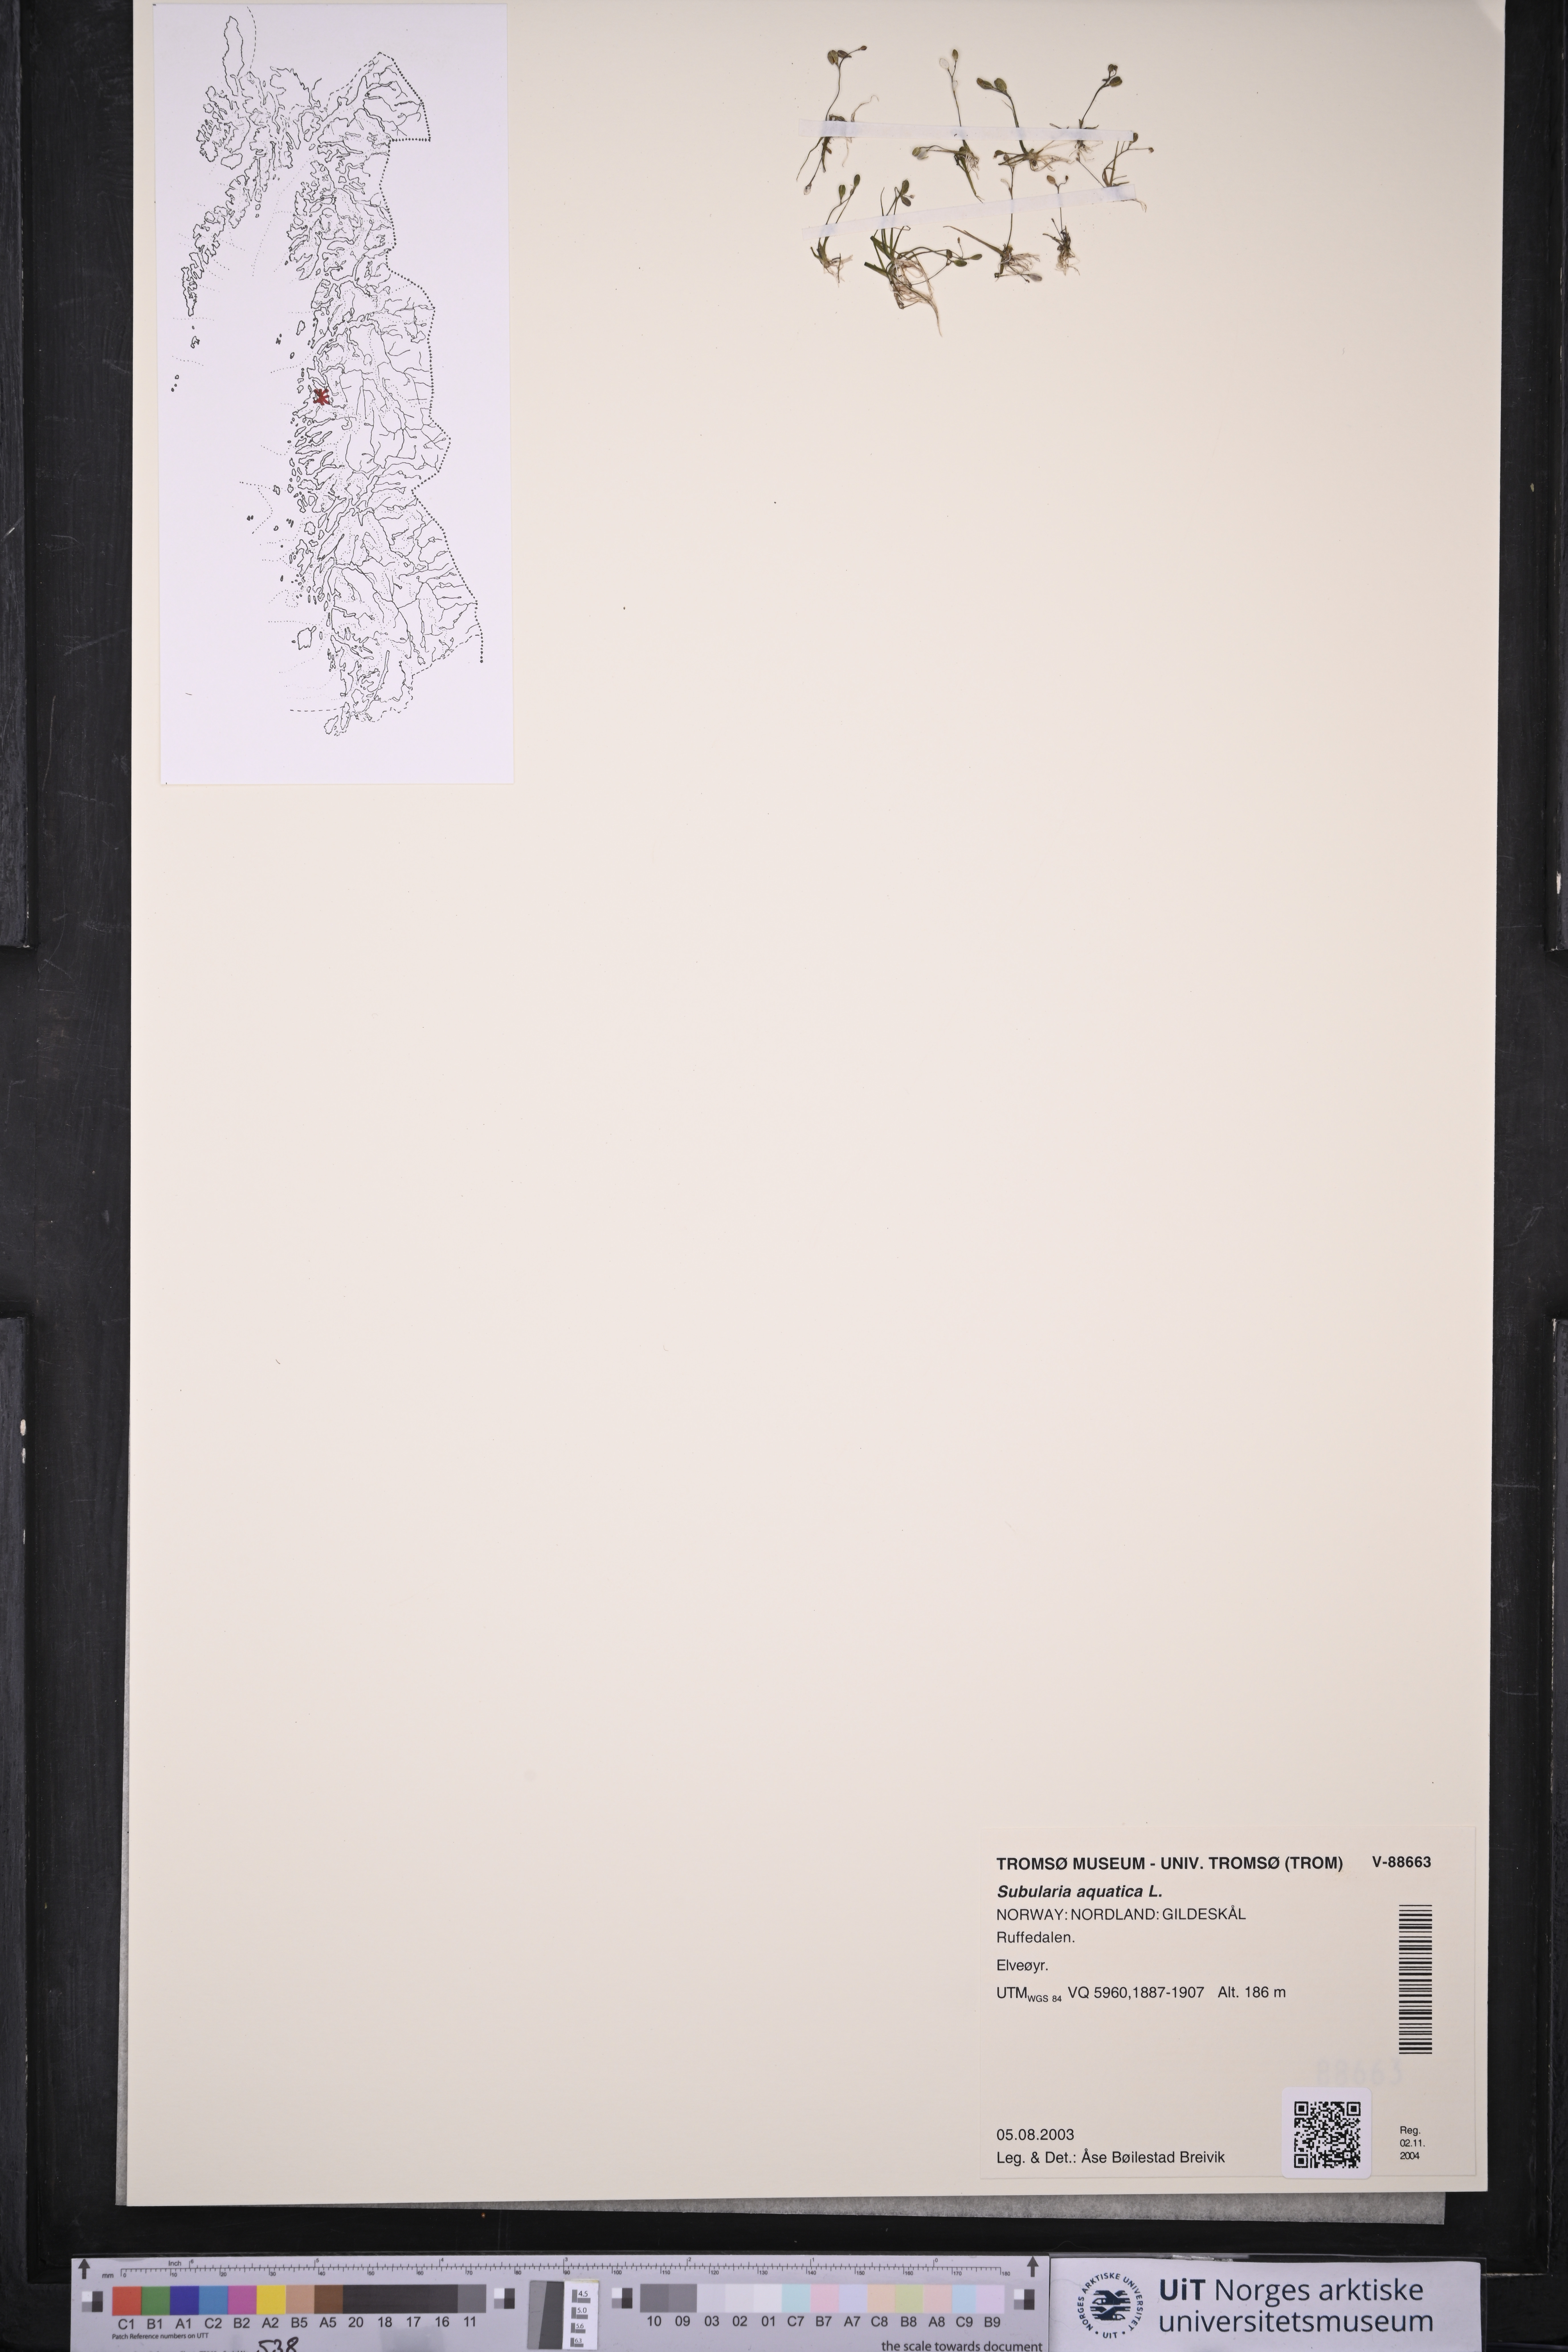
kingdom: Plantae
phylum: Tracheophyta
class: Magnoliopsida
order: Brassicales
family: Brassicaceae
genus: Subularia
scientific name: Subularia aquatica
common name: Awlwort
